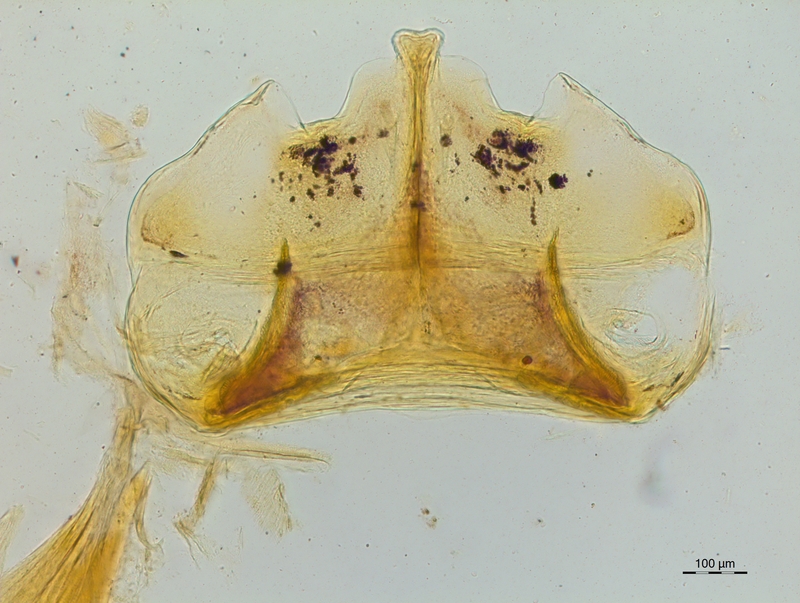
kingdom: Animalia
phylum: Arthropoda
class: Diplopoda
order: Chordeumatida
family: Craspedosomatidae
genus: Craspedosoma
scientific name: Craspedosoma taurinorum
